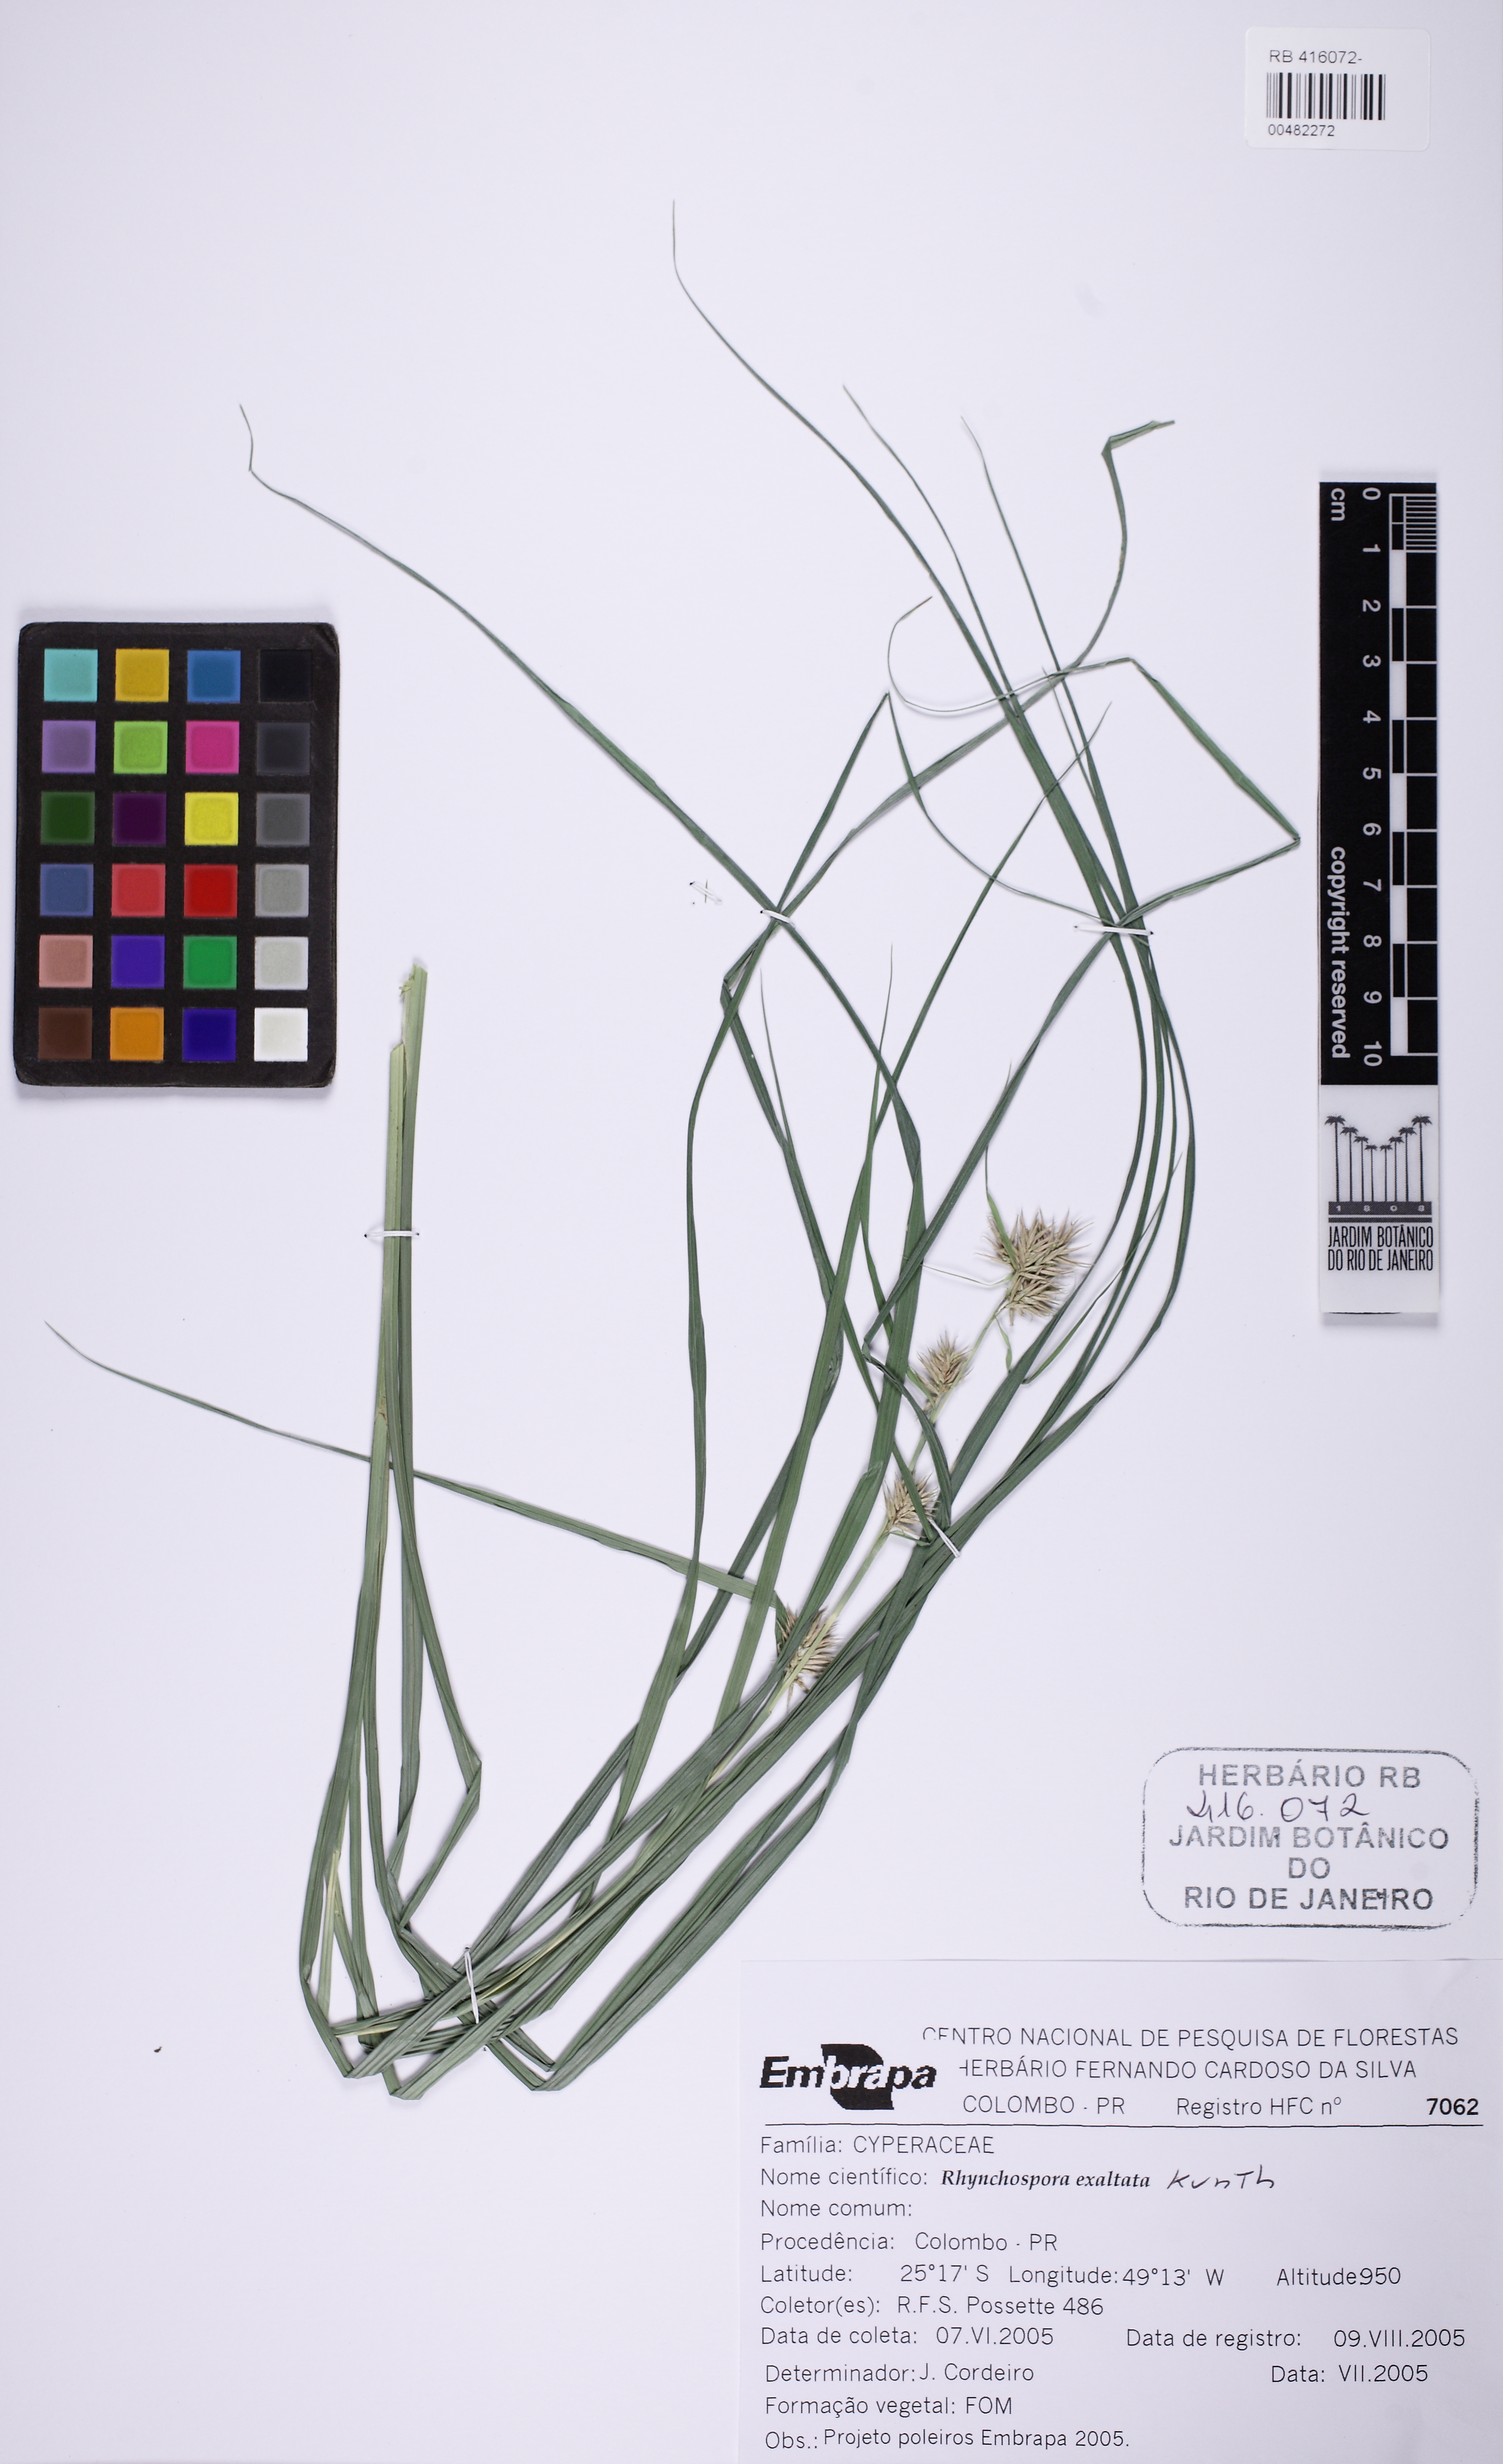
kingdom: Plantae
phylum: Tracheophyta
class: Liliopsida
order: Poales
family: Cyperaceae
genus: Rhynchospora
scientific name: Rhynchospora exaltata
